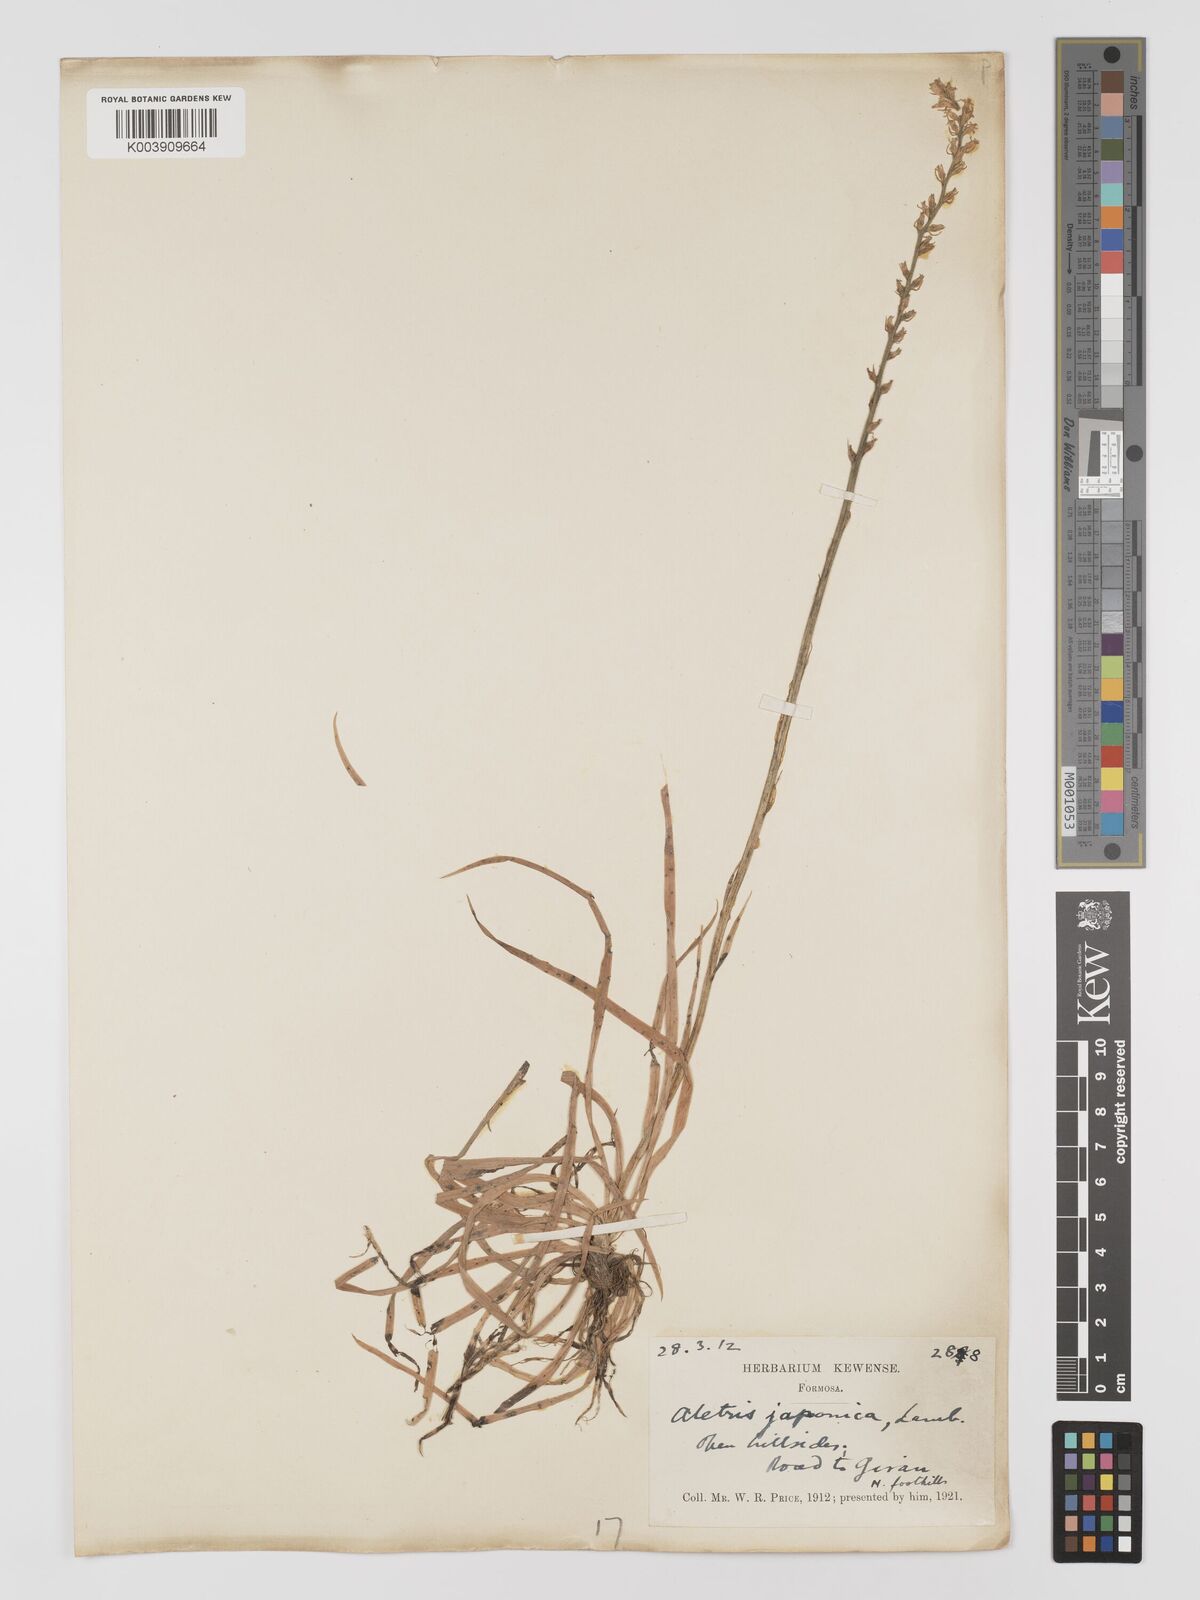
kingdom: Plantae
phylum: Tracheophyta
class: Liliopsida
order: Dioscoreales
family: Nartheciaceae
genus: Aletris
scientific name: Aletris spicata
